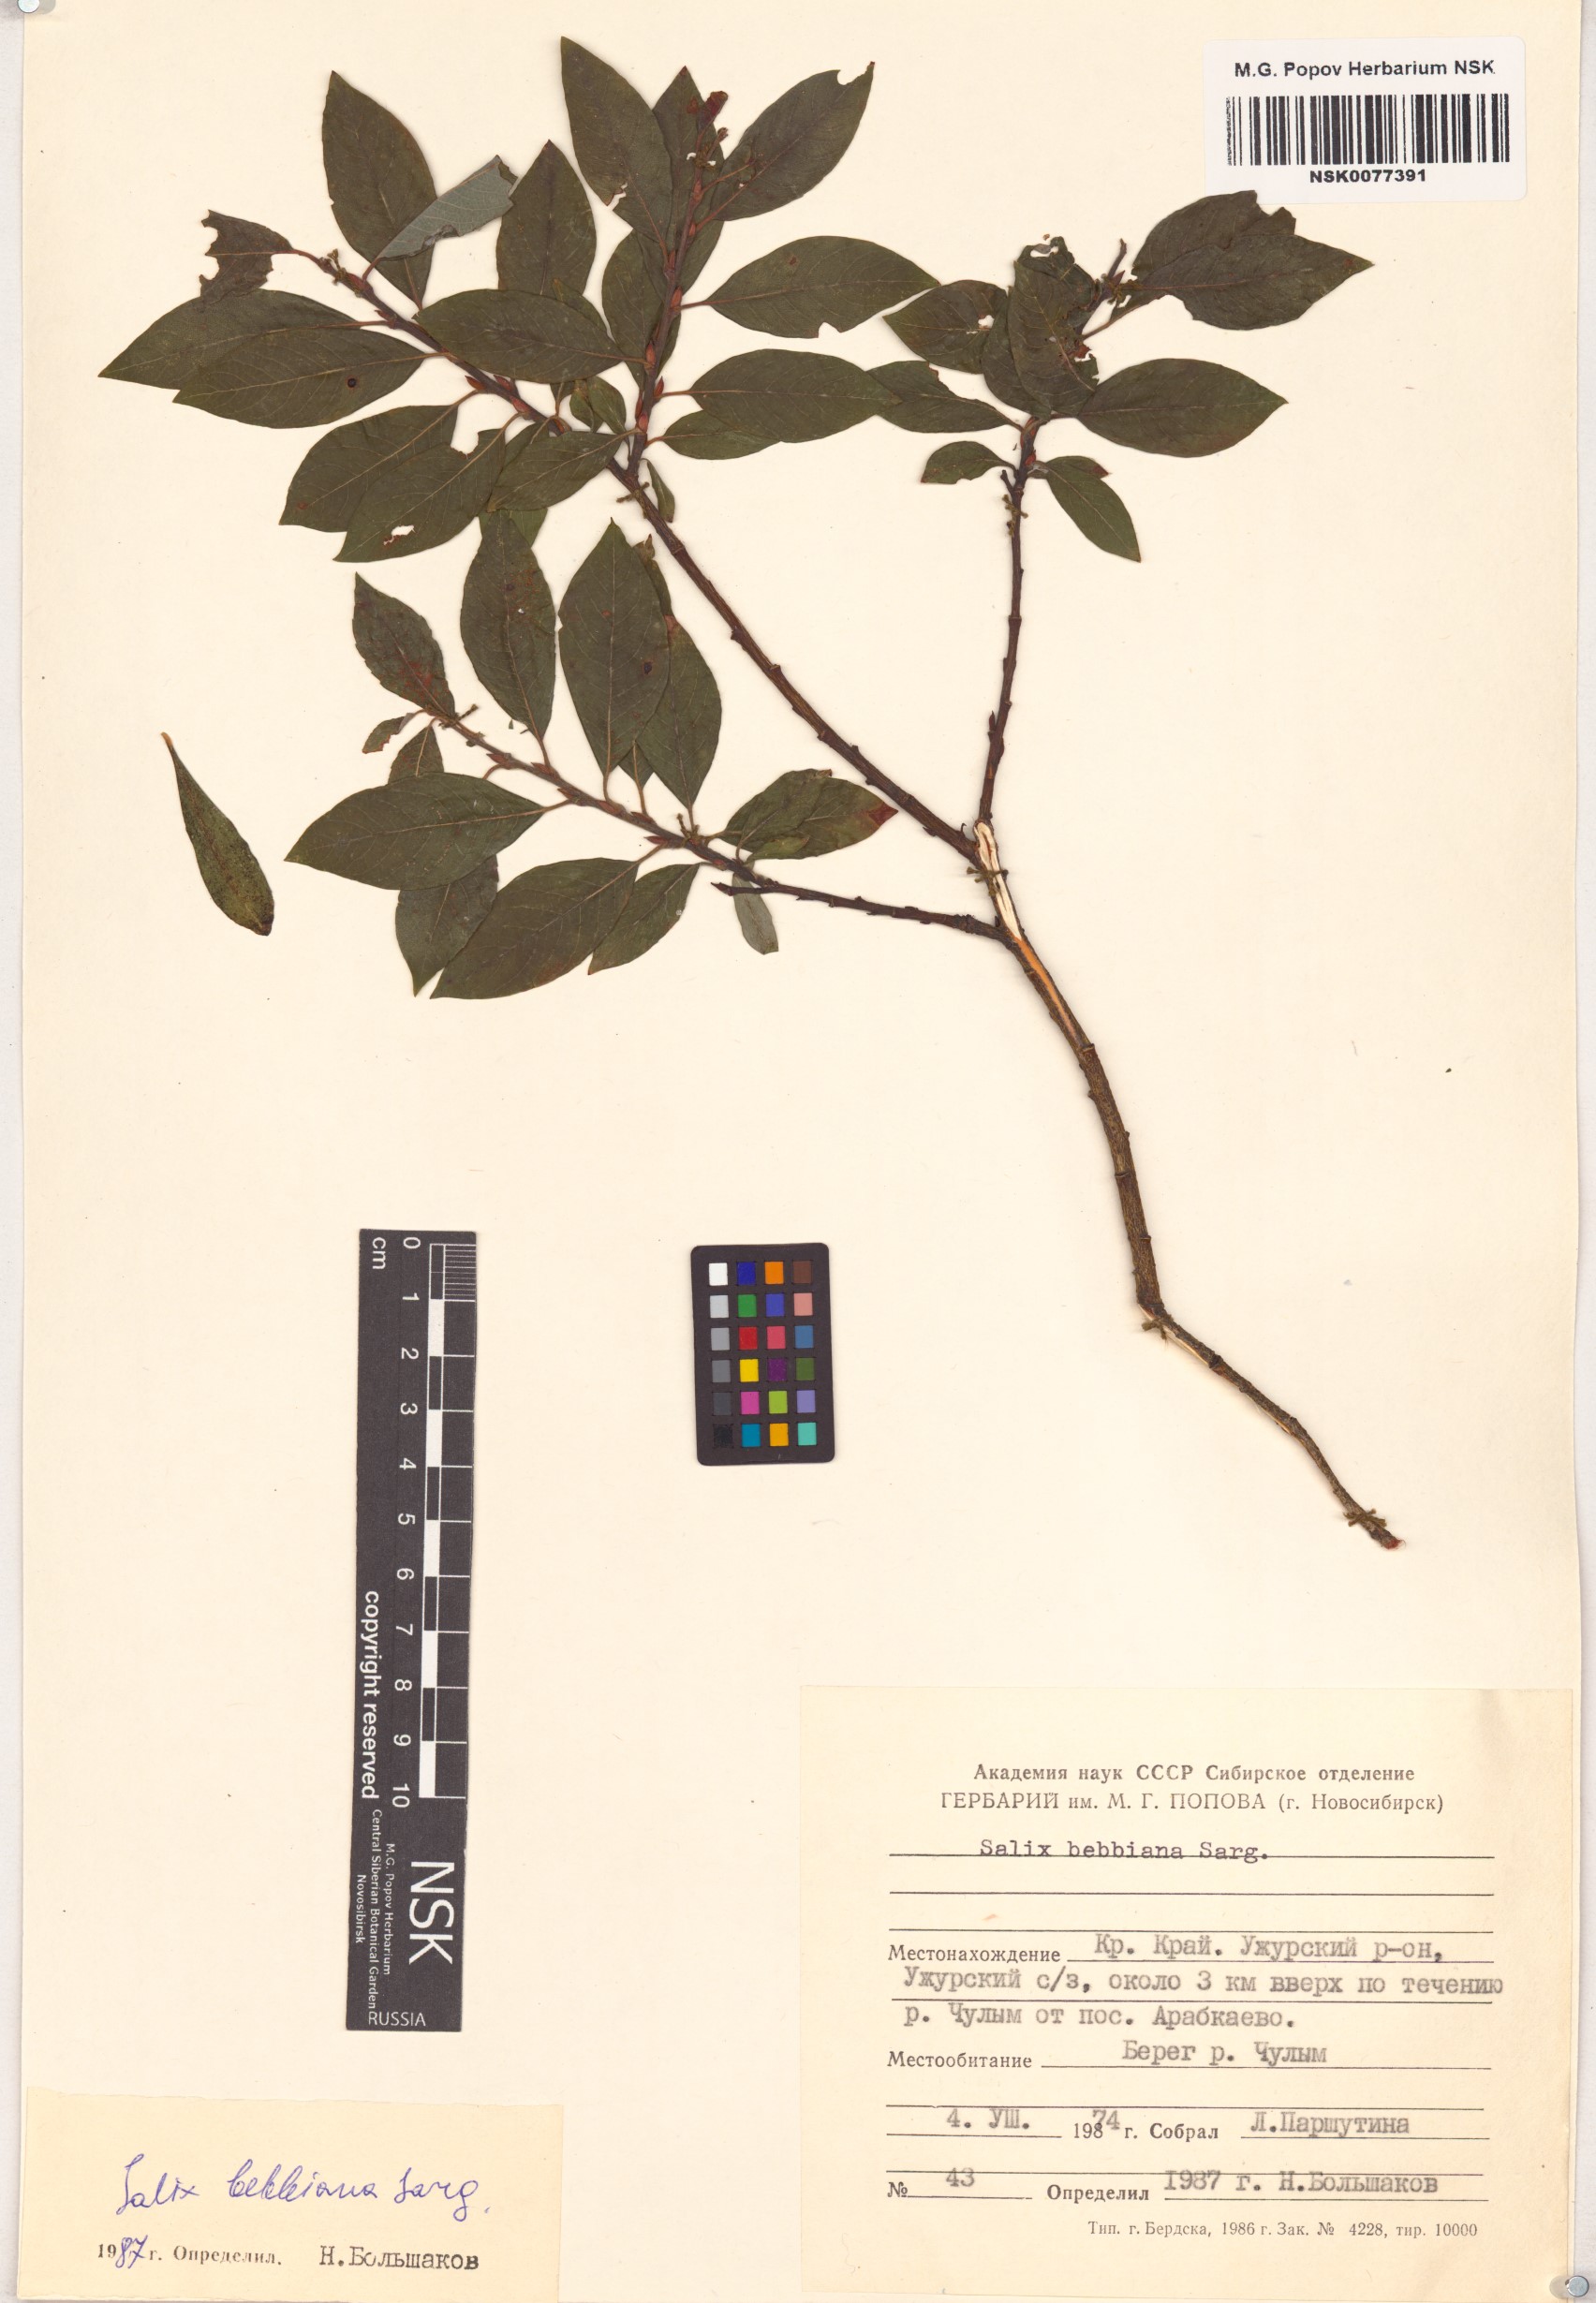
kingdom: Plantae
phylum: Tracheophyta
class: Magnoliopsida
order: Malpighiales
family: Salicaceae
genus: Salix
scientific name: Salix bebbiana
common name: Bebb's willow
